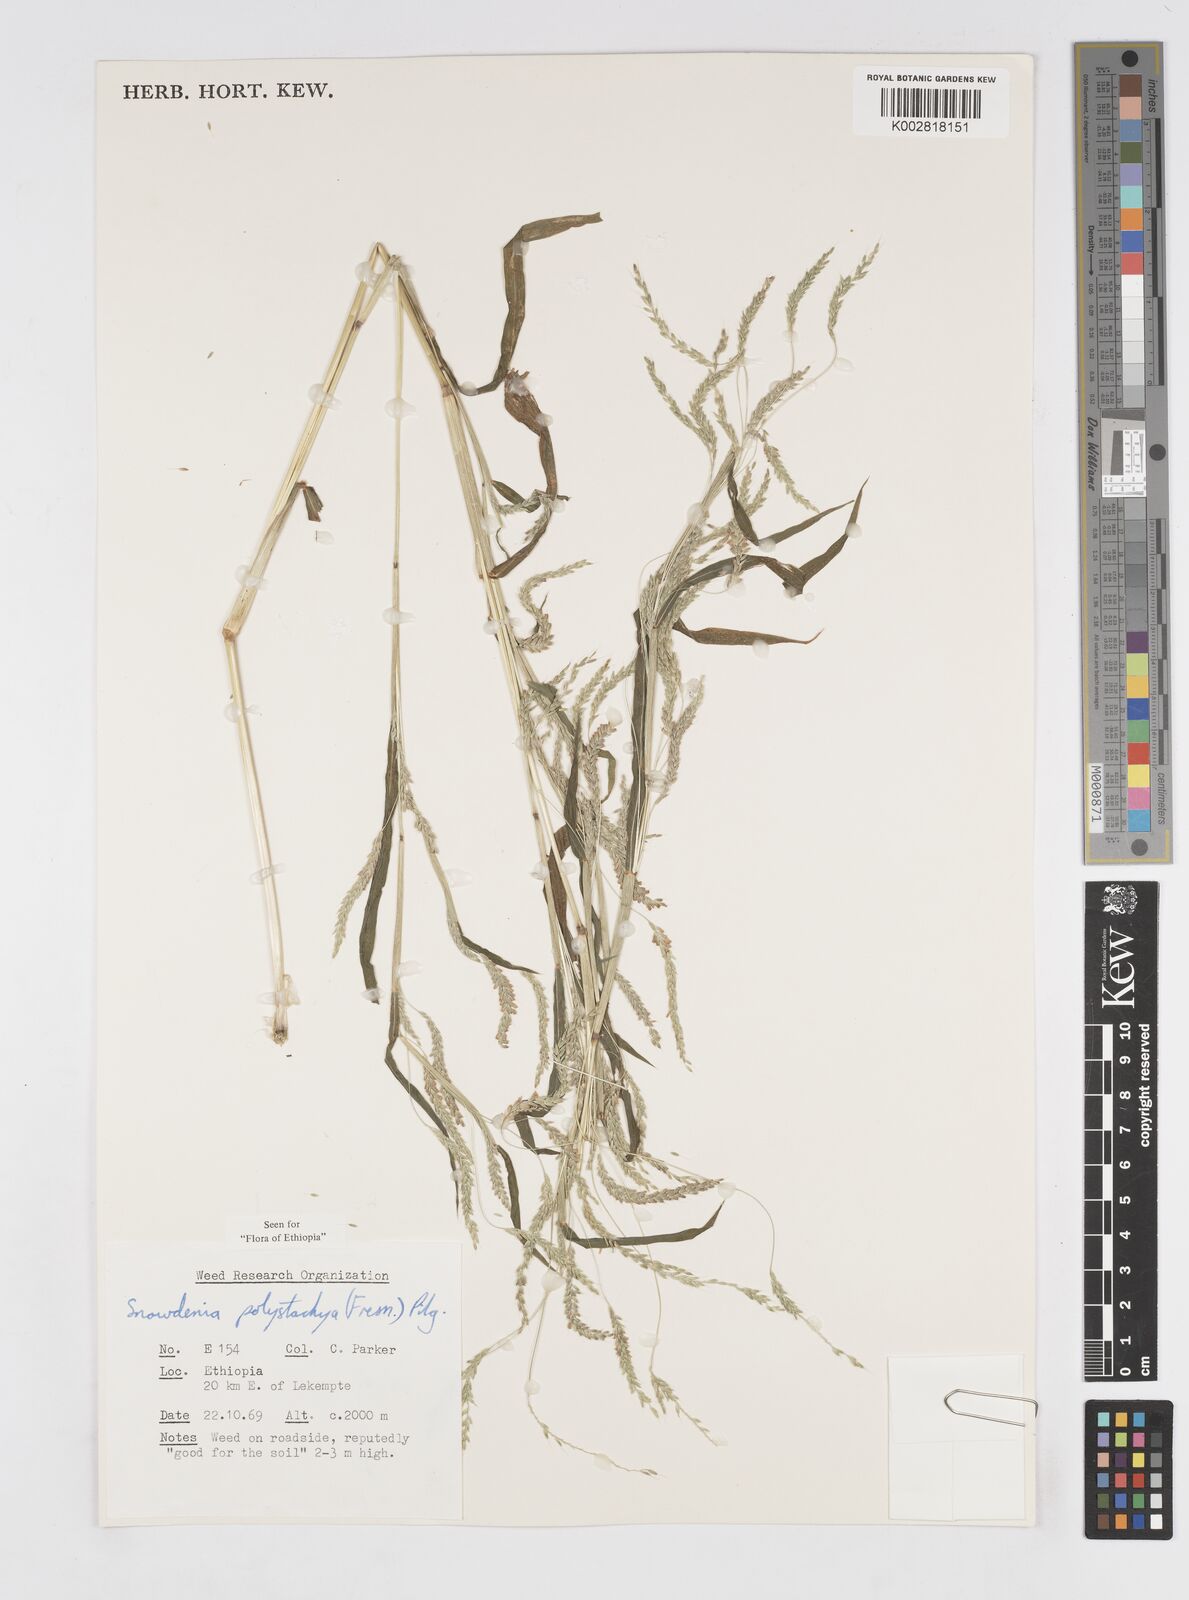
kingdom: Plantae
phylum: Tracheophyta
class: Liliopsida
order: Poales
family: Poaceae
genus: Snowdenia
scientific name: Snowdenia polystachya
